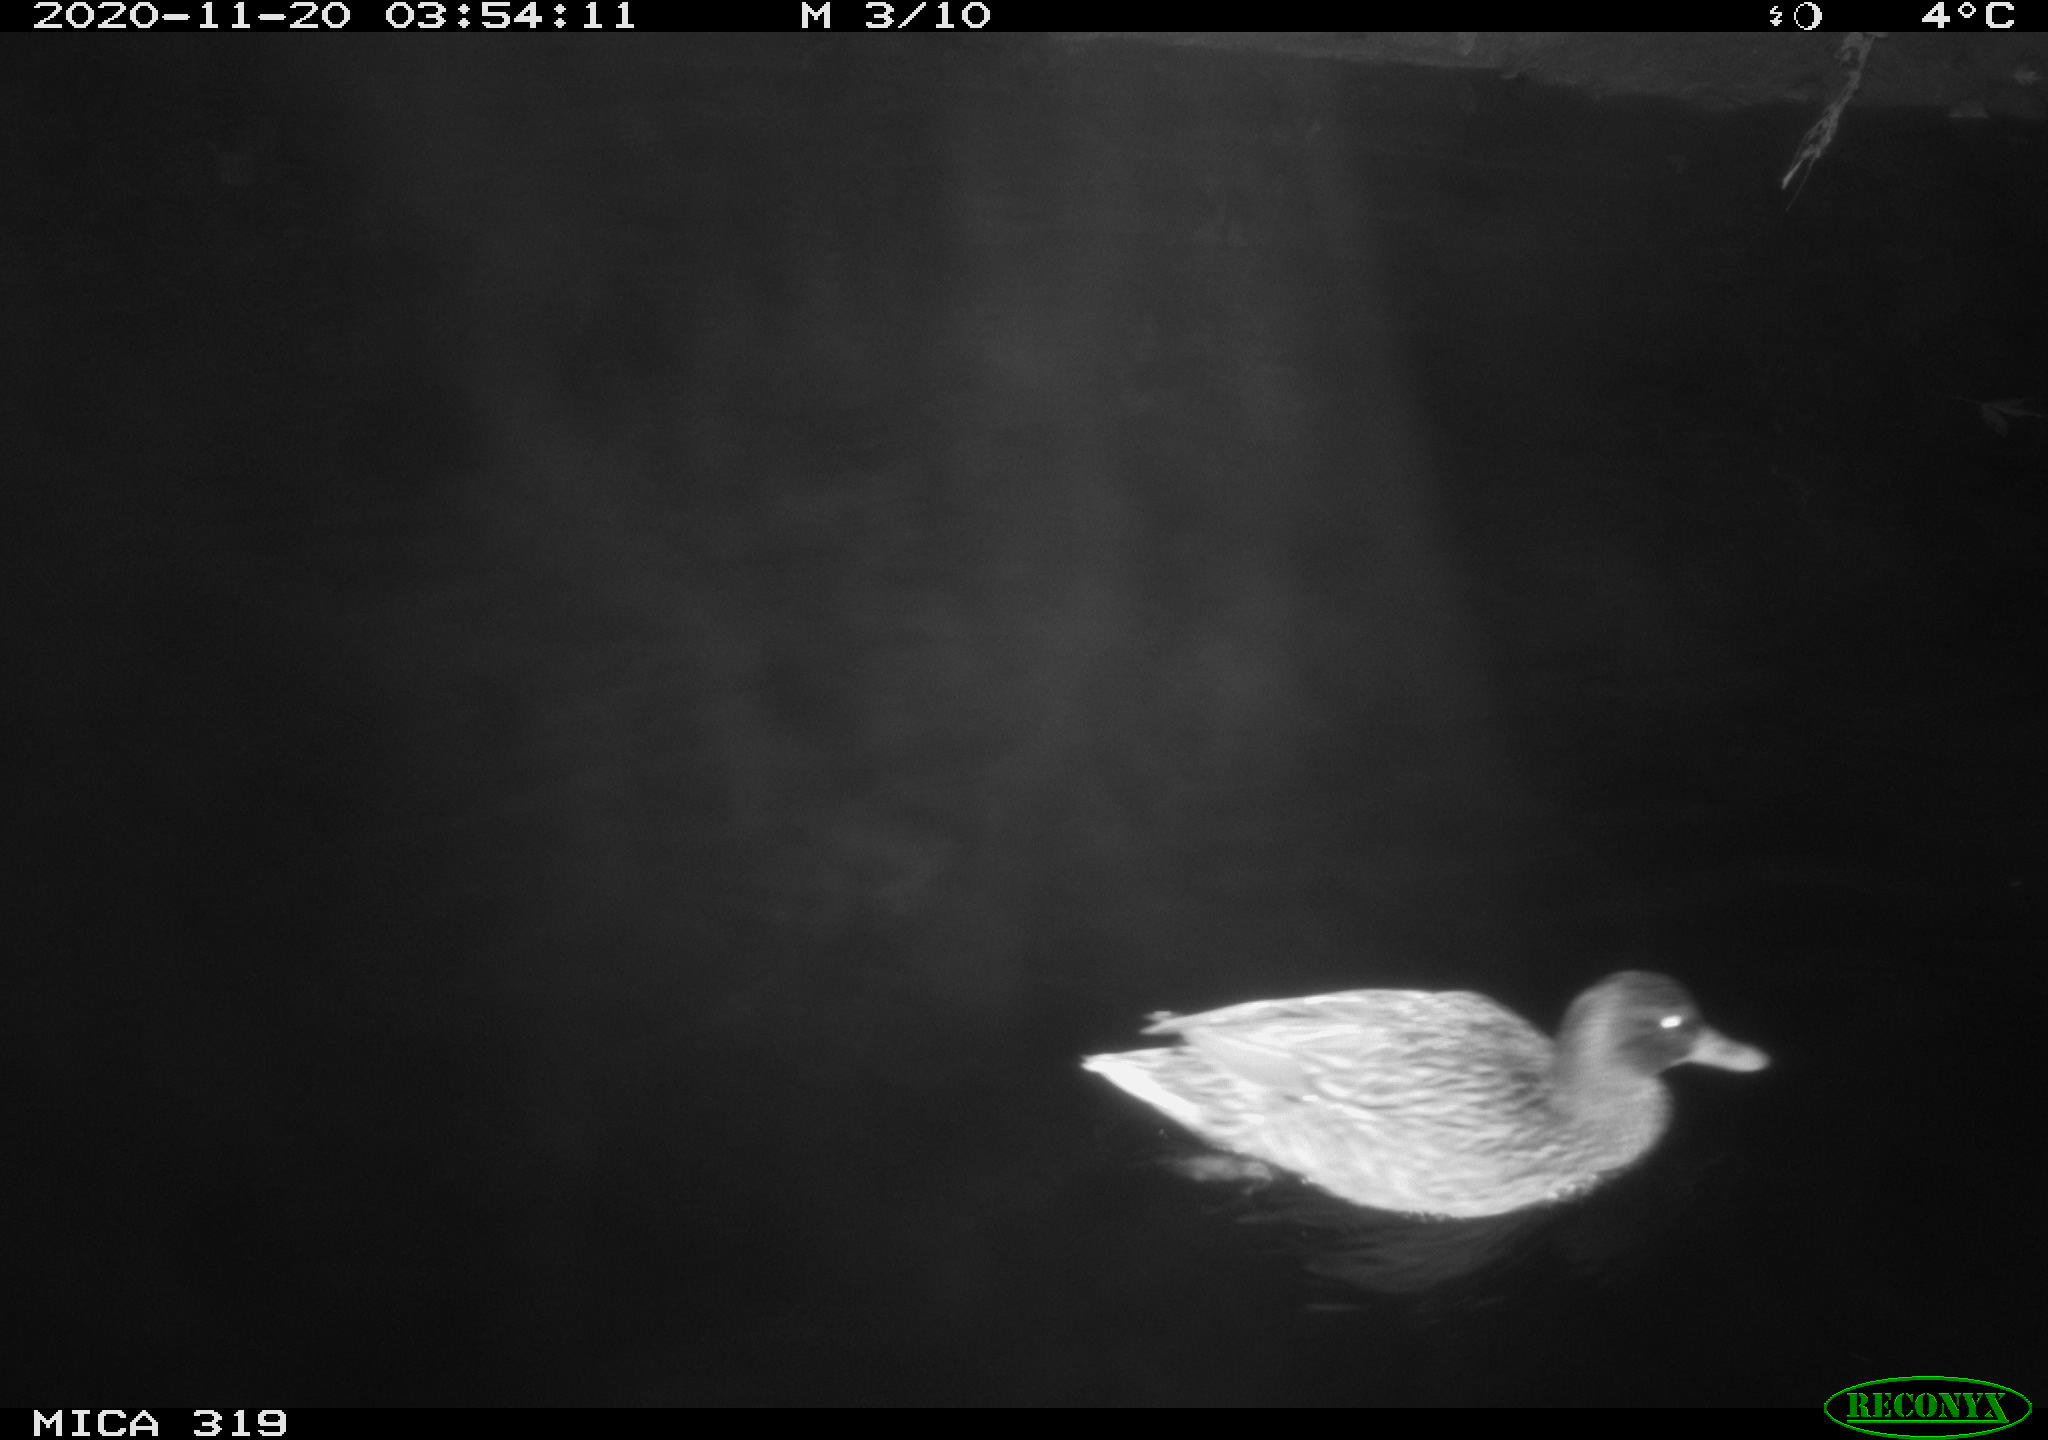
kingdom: Animalia
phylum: Chordata
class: Aves
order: Anseriformes
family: Anatidae
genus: Anas
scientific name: Anas platyrhynchos
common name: Mallard
